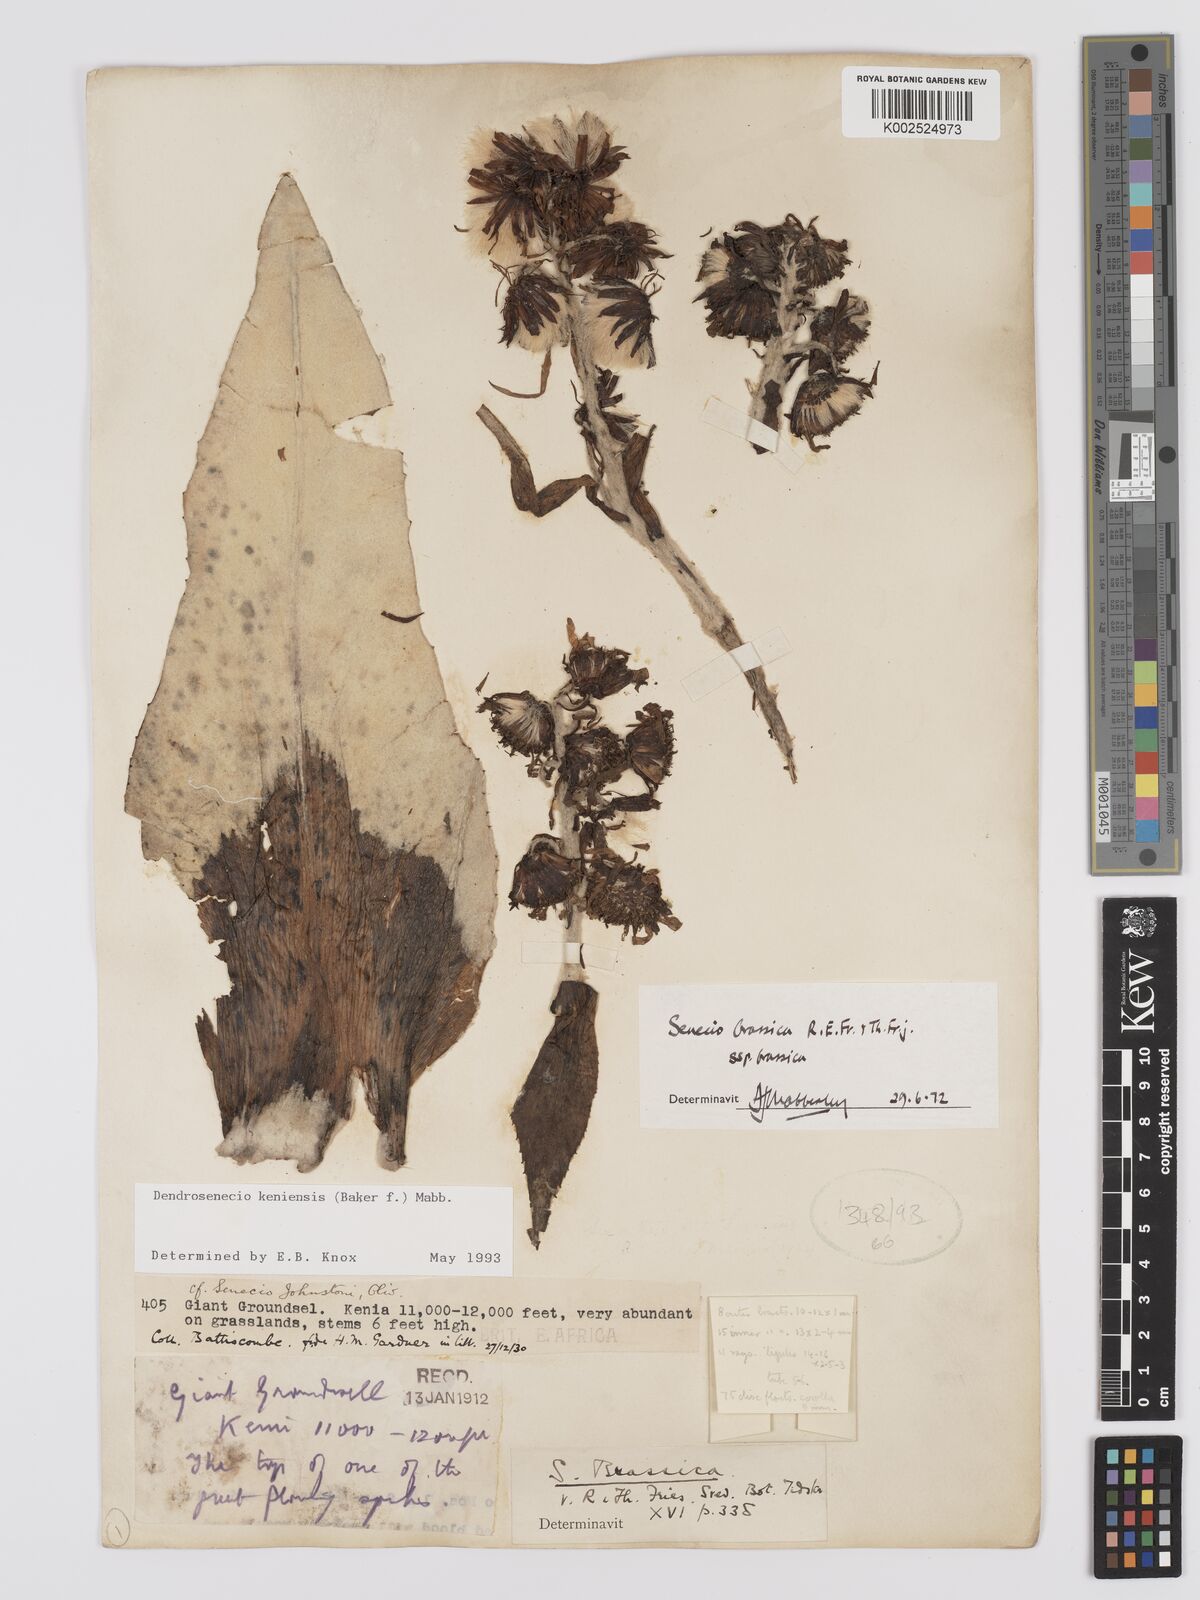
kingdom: Plantae
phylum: Tracheophyta
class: Magnoliopsida
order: Asterales
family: Asteraceae
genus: Dendrosenecio
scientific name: Dendrosenecio keniensis
